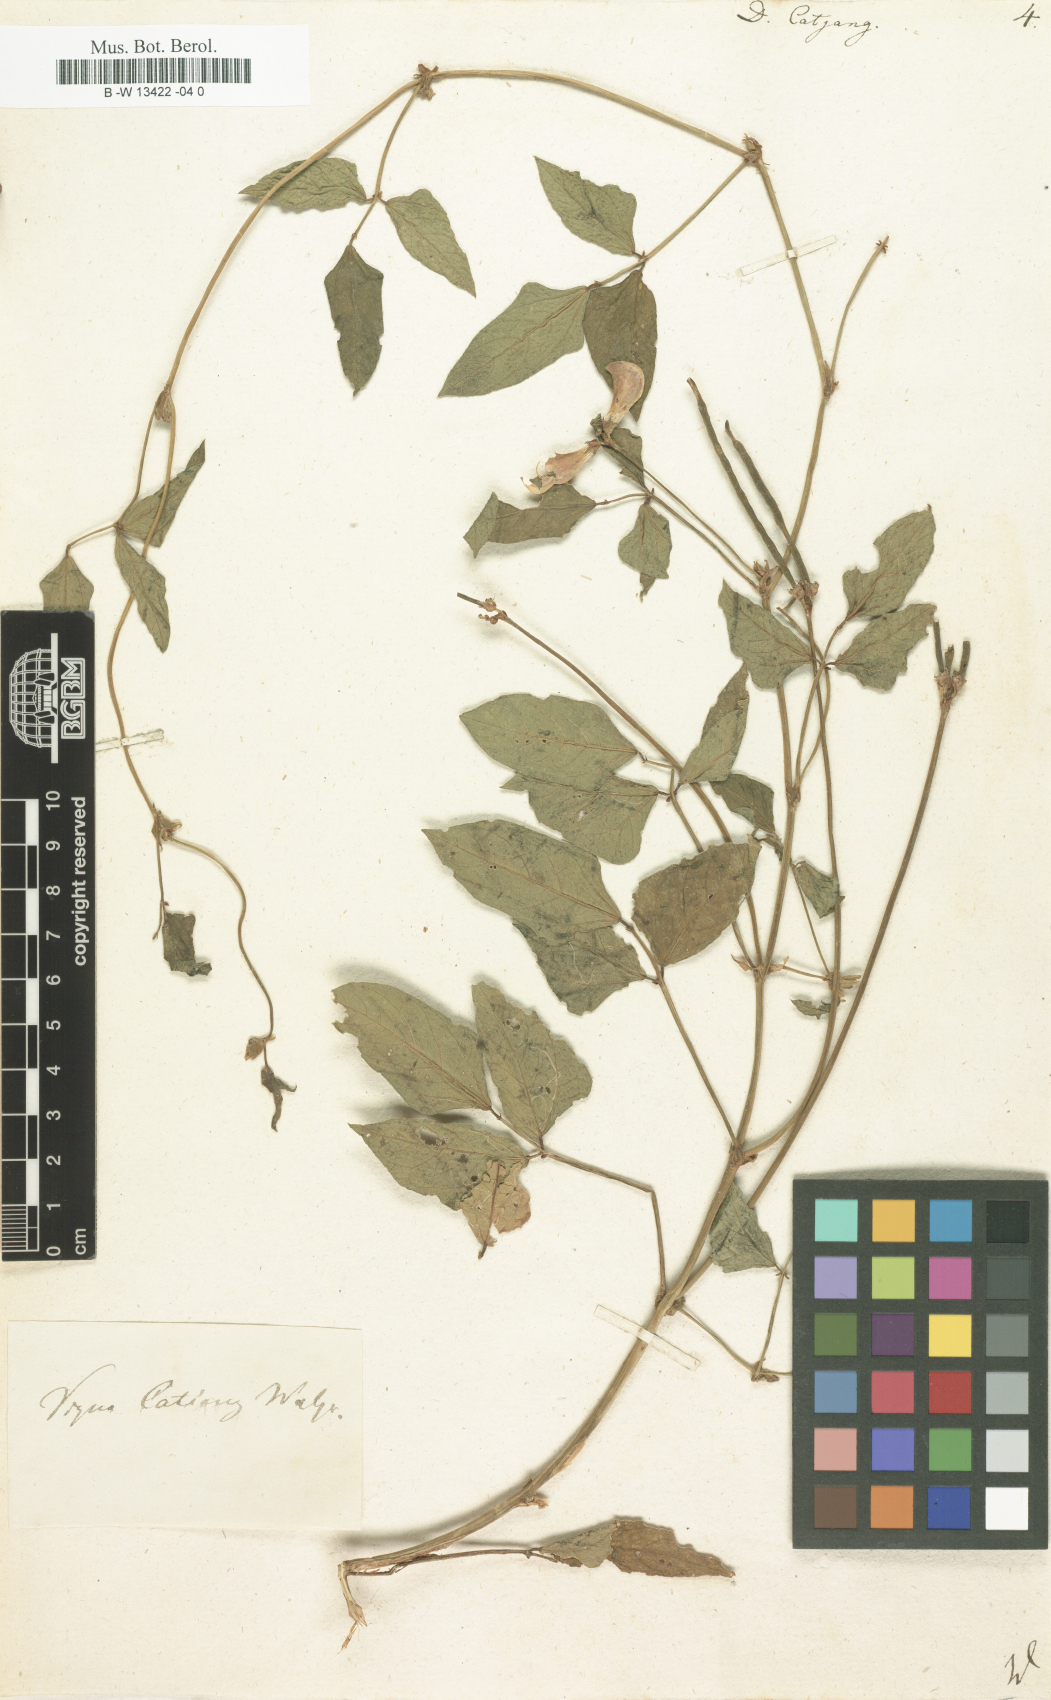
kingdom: Plantae
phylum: Tracheophyta
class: Magnoliopsida
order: Fabales
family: Fabaceae
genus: Vigna
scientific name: Vigna unguiculata
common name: Cowpea
